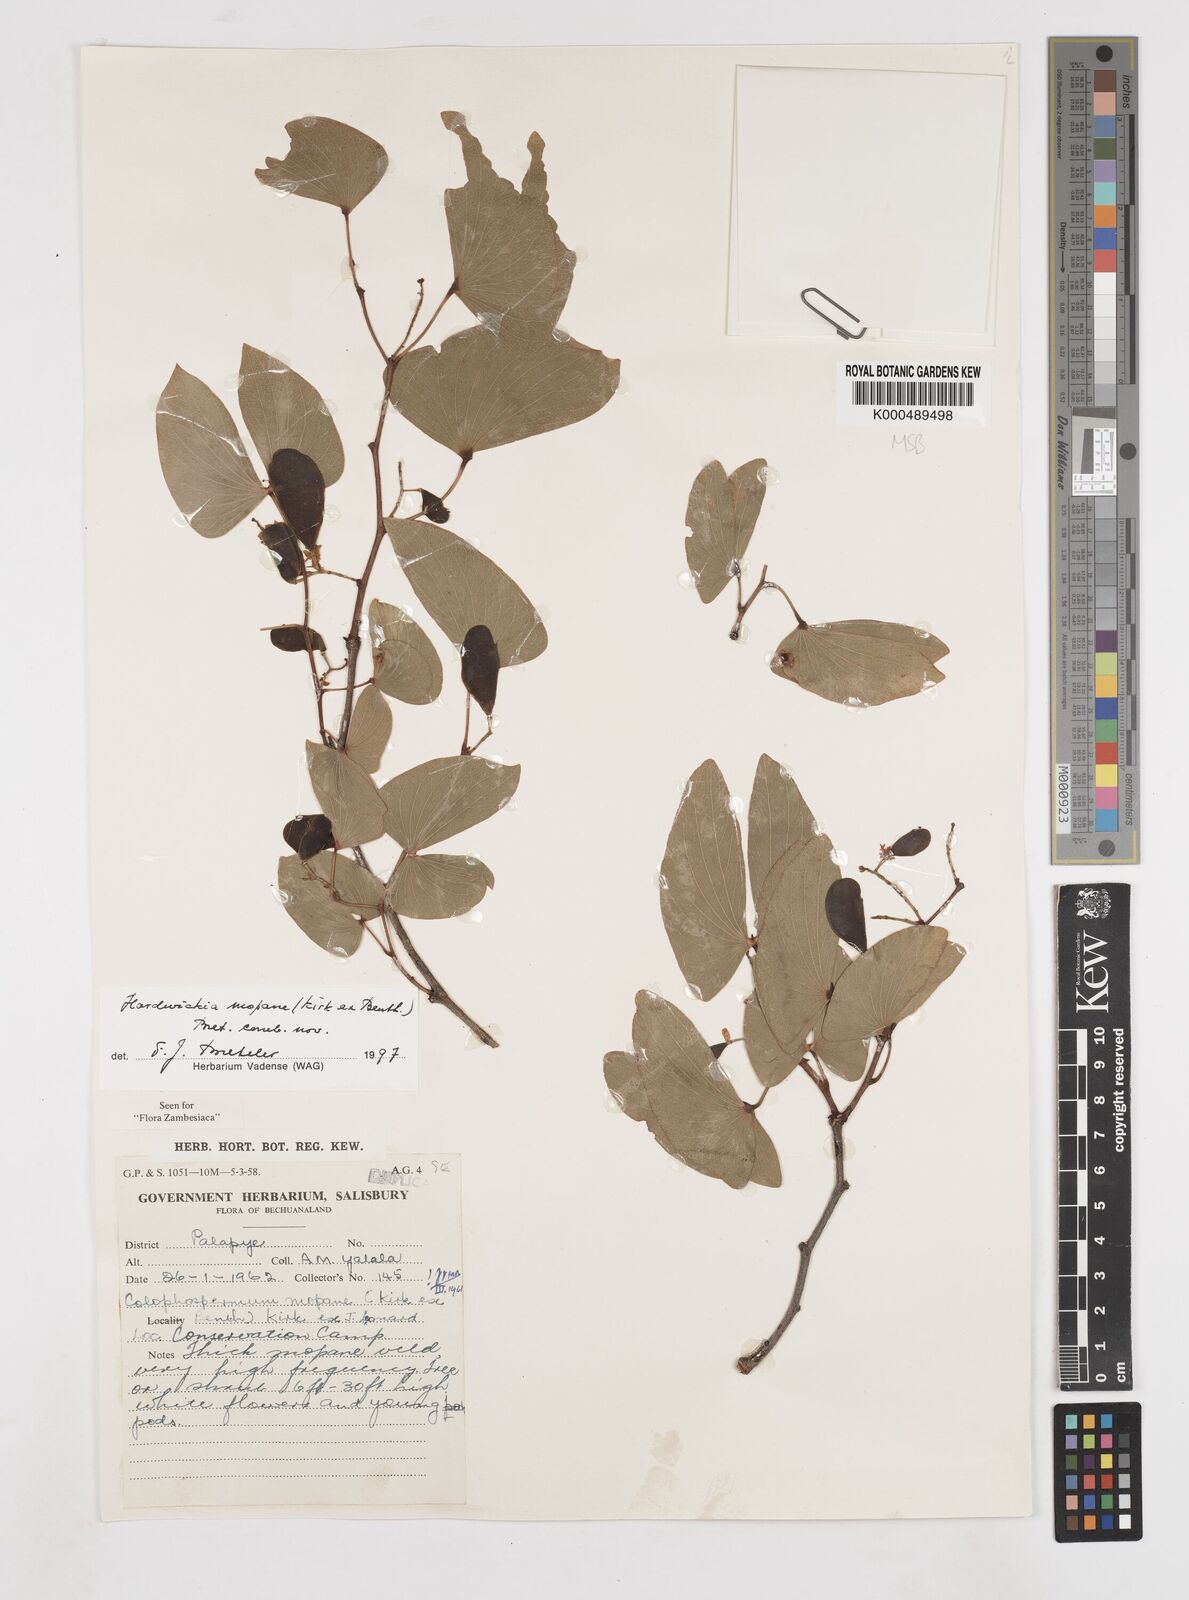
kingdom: Plantae
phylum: Tracheophyta
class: Magnoliopsida
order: Fabales
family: Fabaceae
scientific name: Fabaceae
